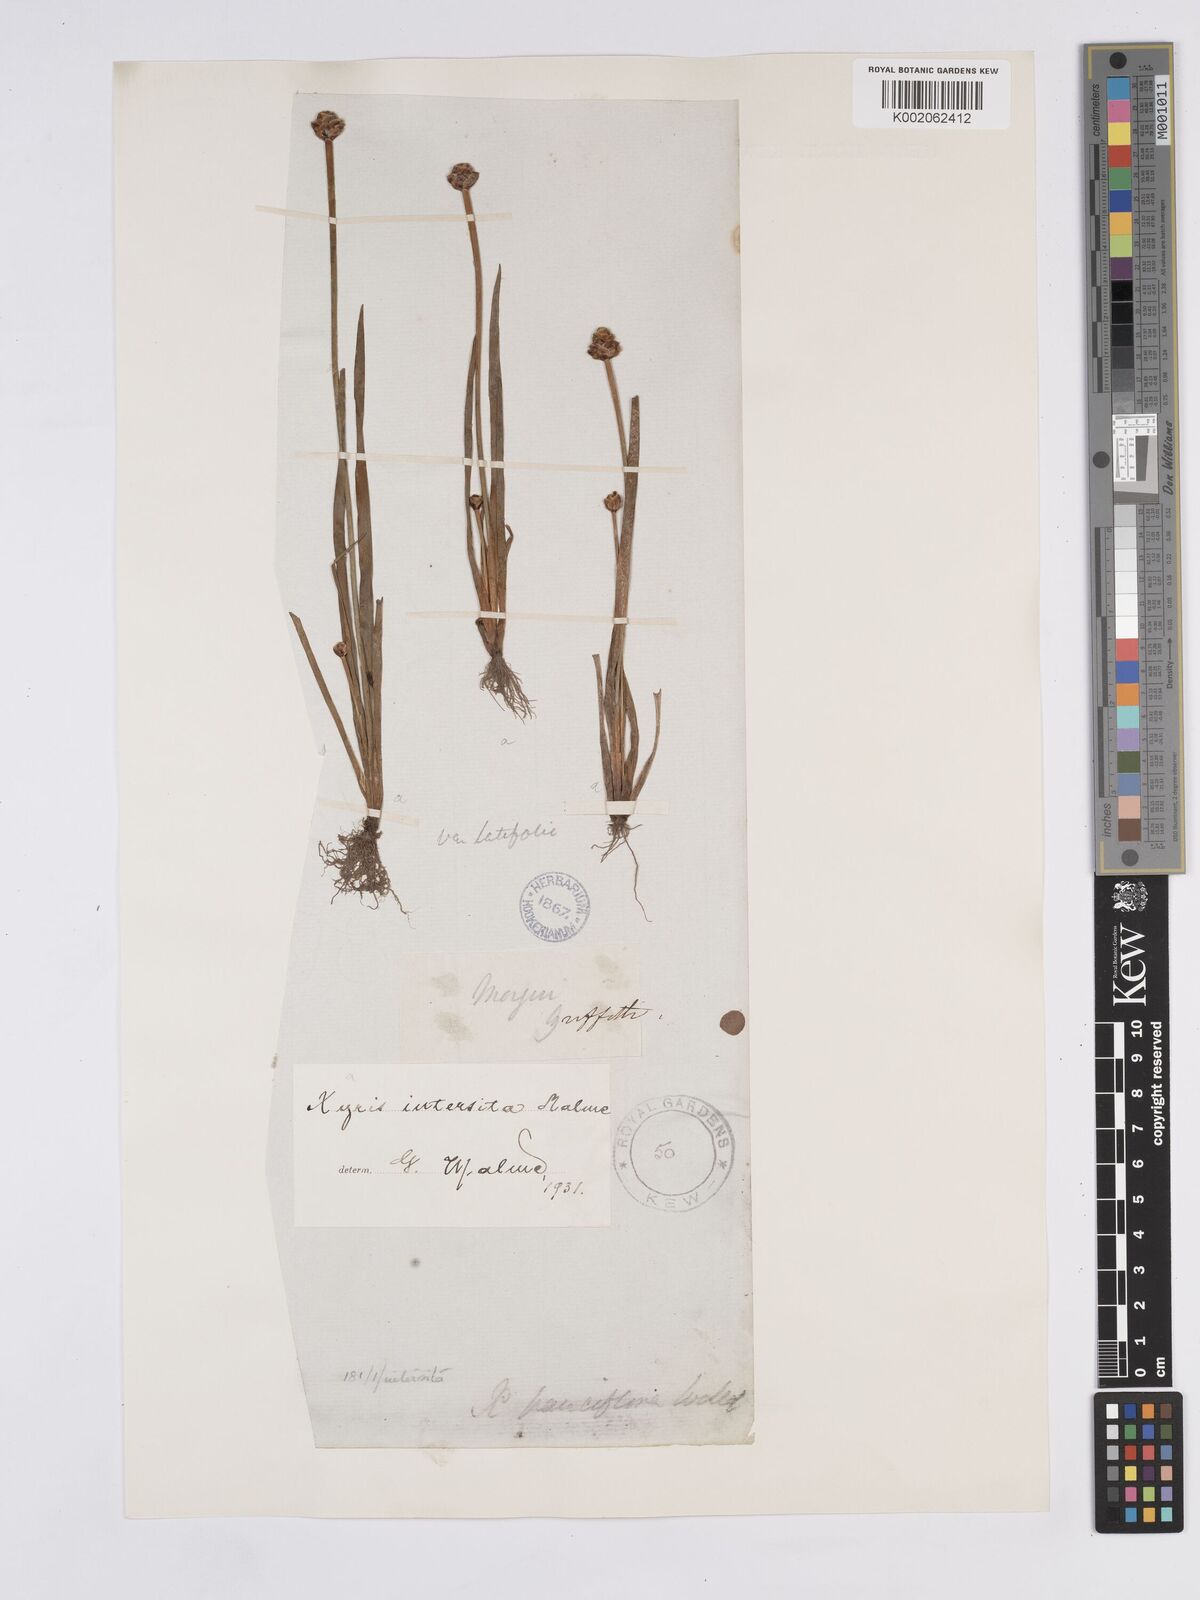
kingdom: Plantae
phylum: Tracheophyta
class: Liliopsida
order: Poales
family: Xyridaceae
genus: Xyris
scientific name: Xyris intersita
